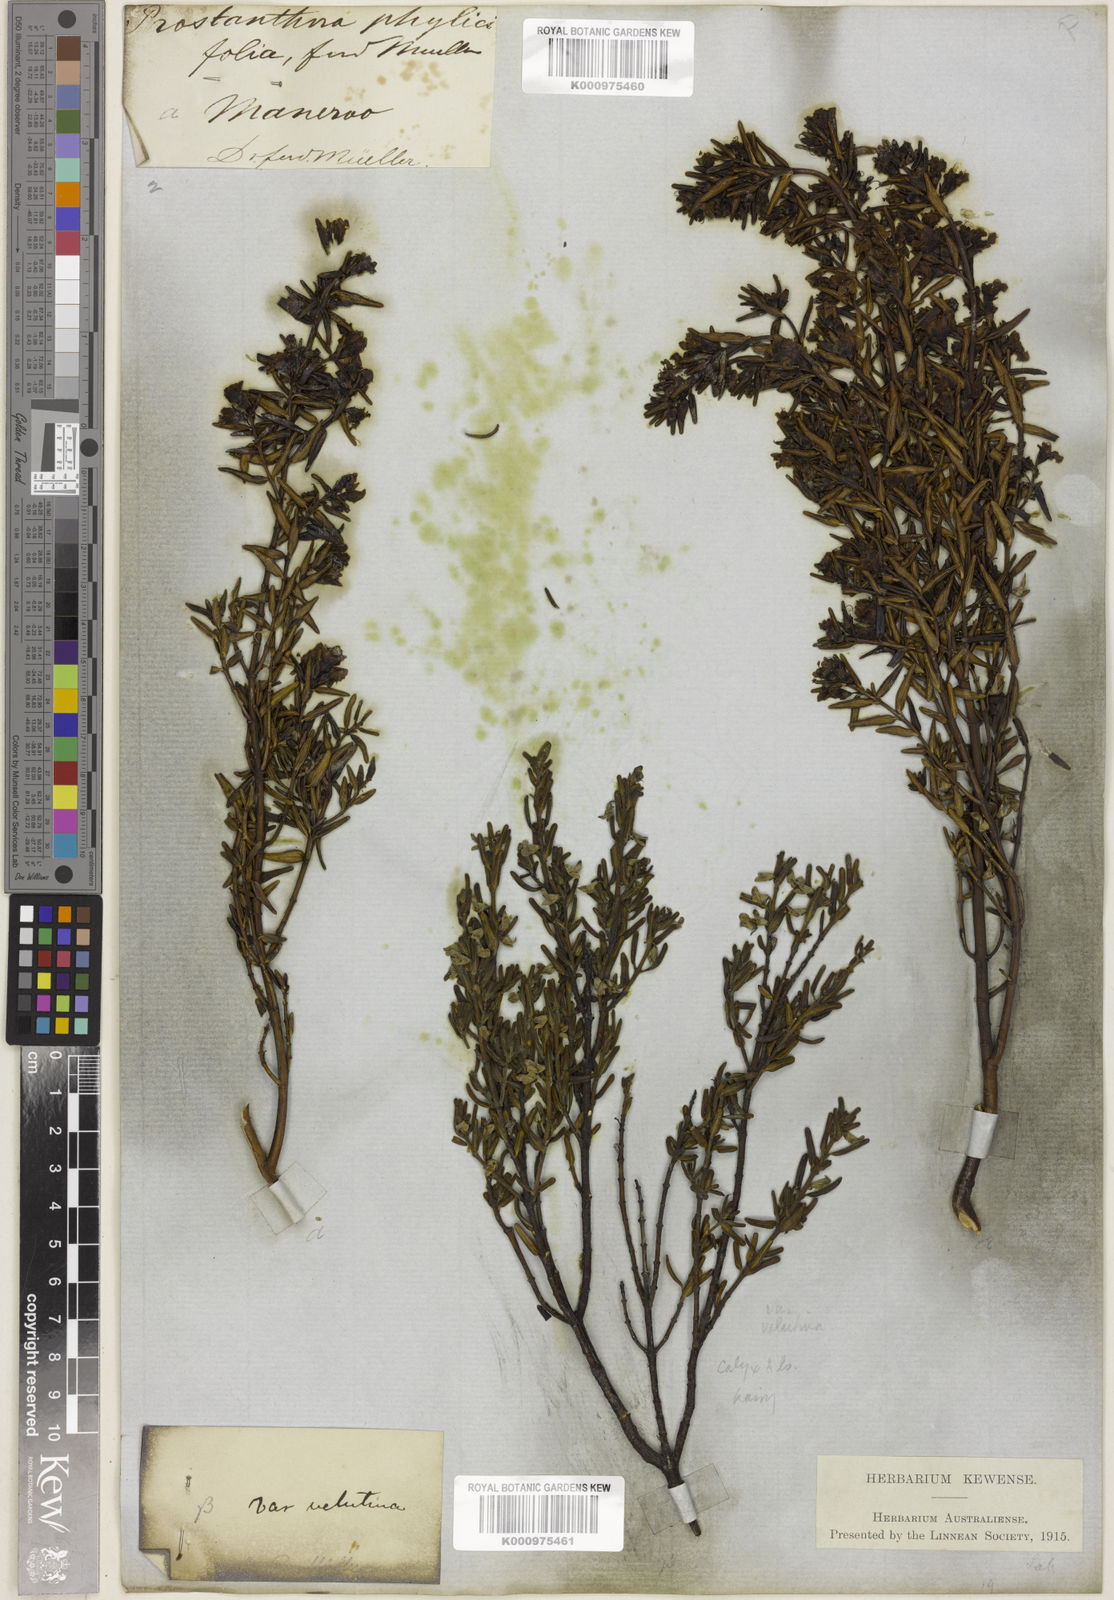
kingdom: Plantae
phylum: Tracheophyta
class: Magnoliopsida
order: Lamiales
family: Lamiaceae
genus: Prostanthera
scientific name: Prostanthera phylicifolia
